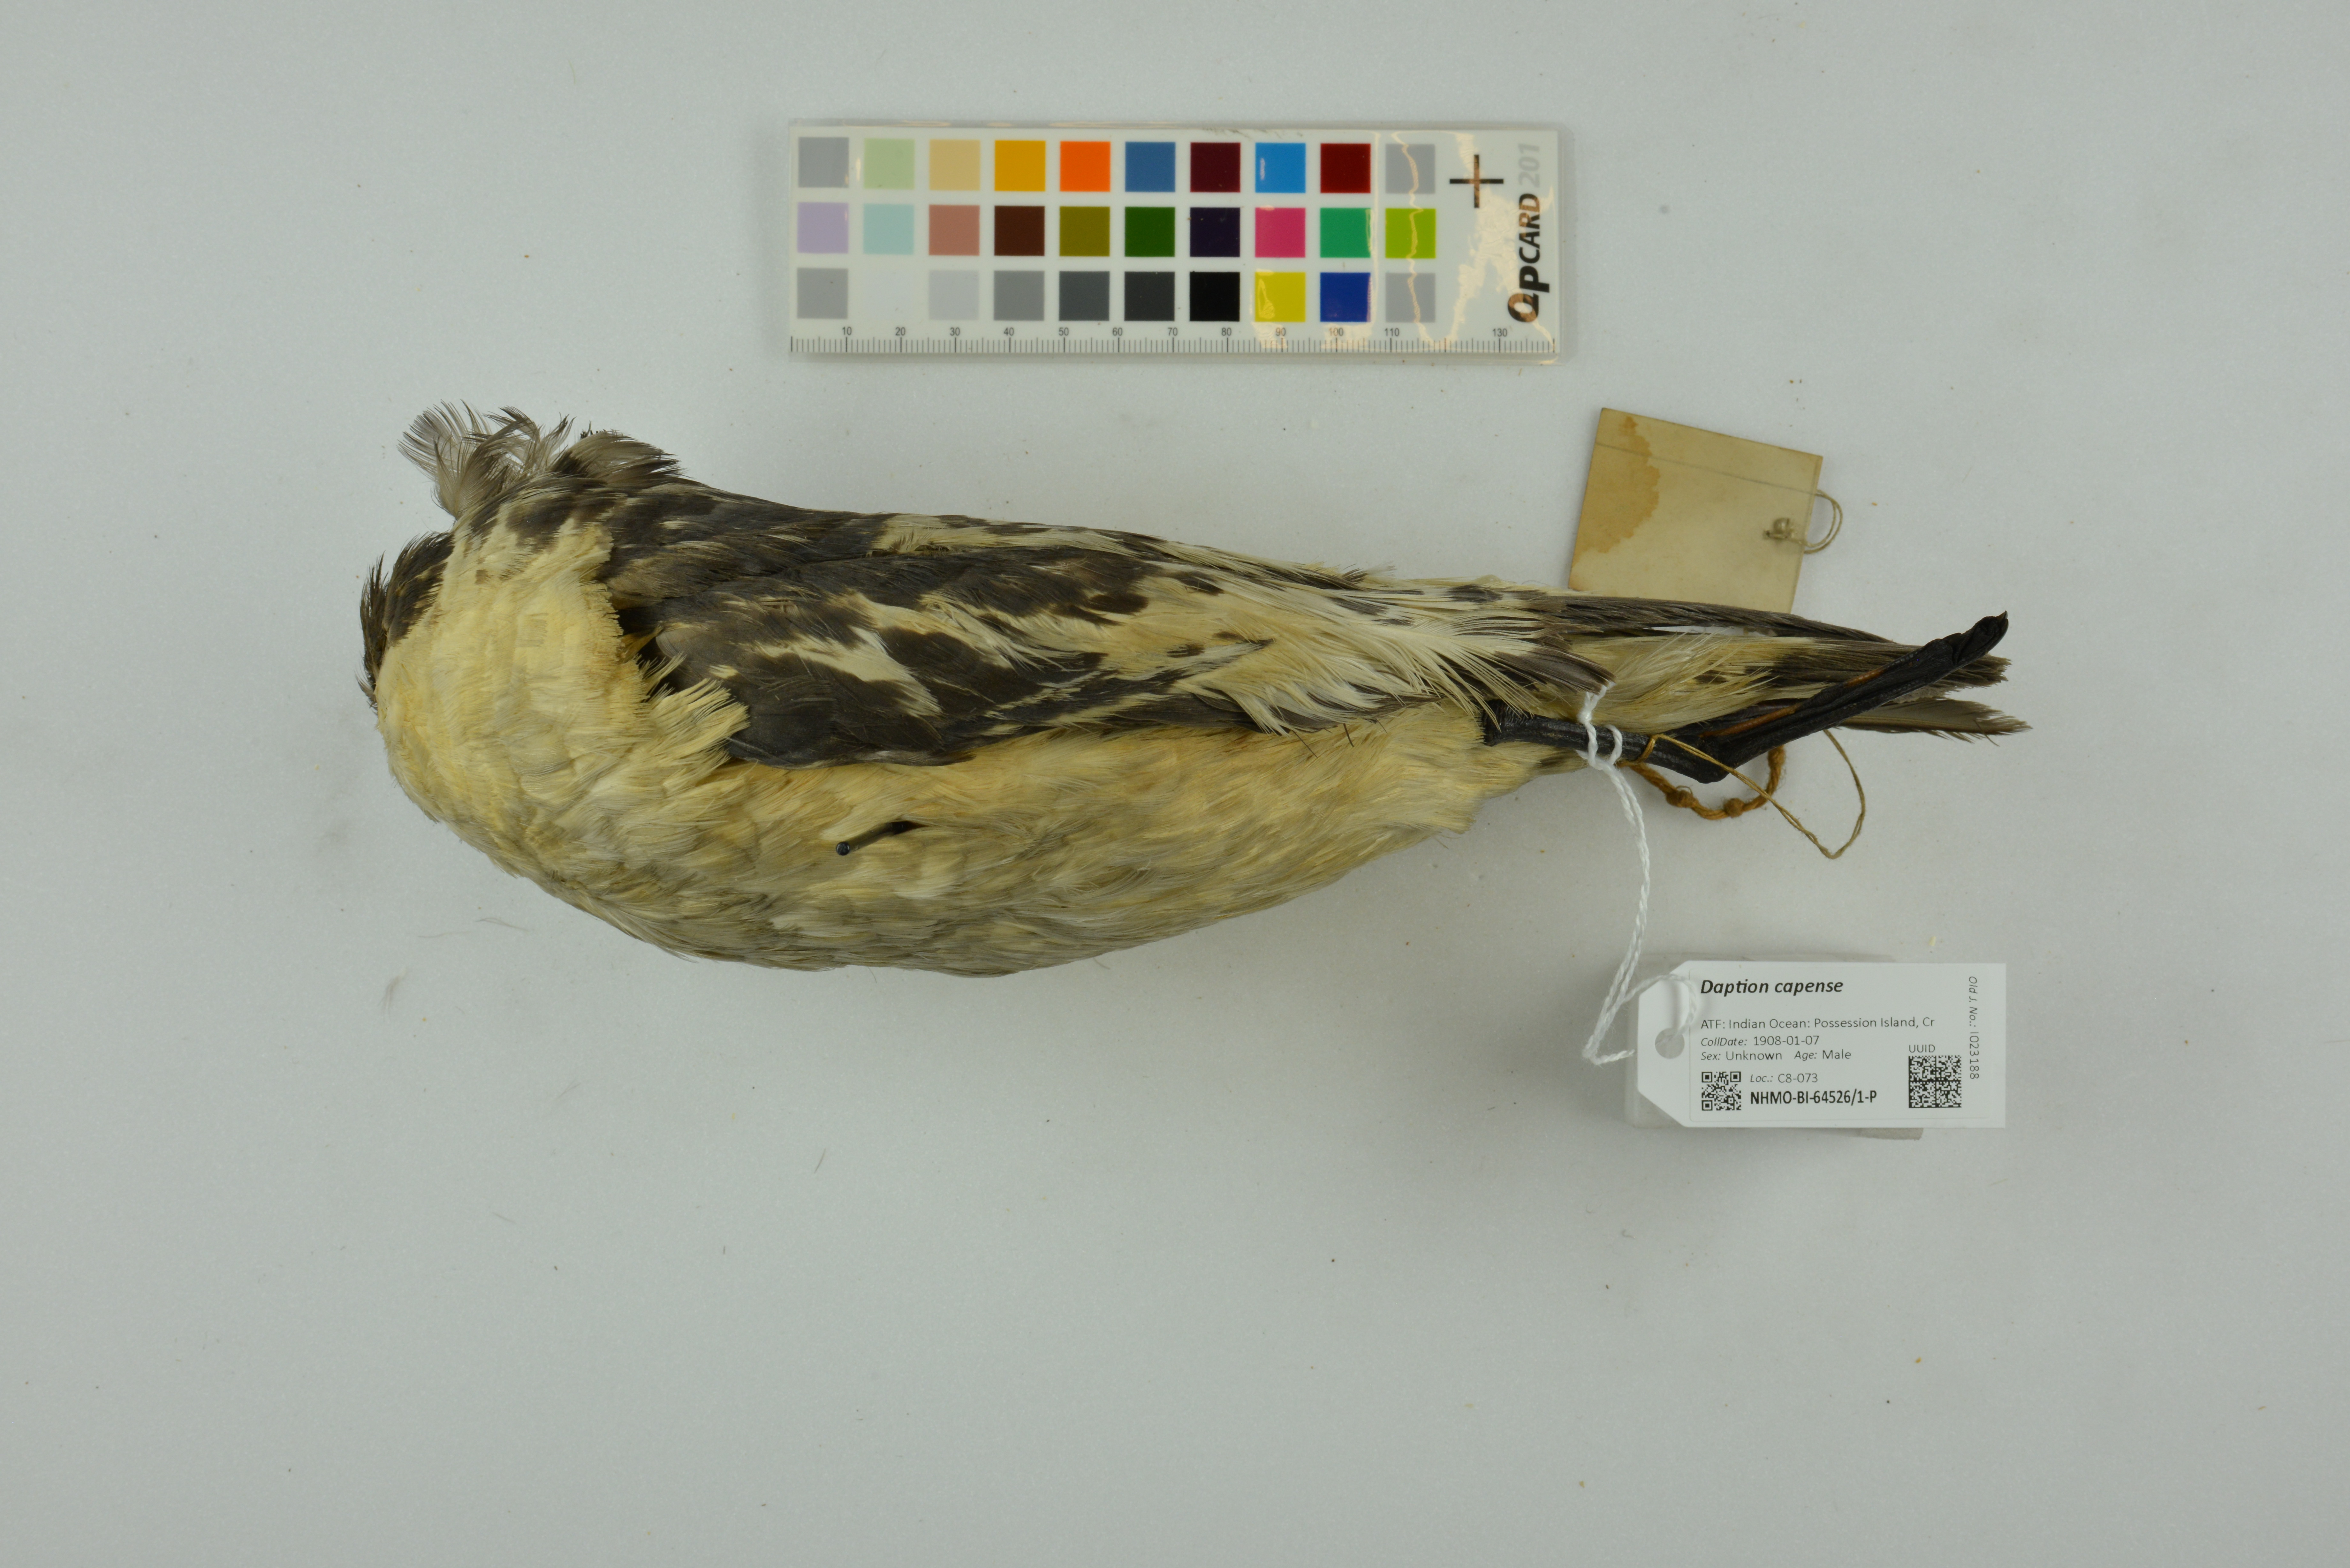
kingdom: Animalia
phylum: Chordata
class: Aves
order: Procellariiformes
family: Procellariidae
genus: Daption
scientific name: Daption capense
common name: Cape petrel
